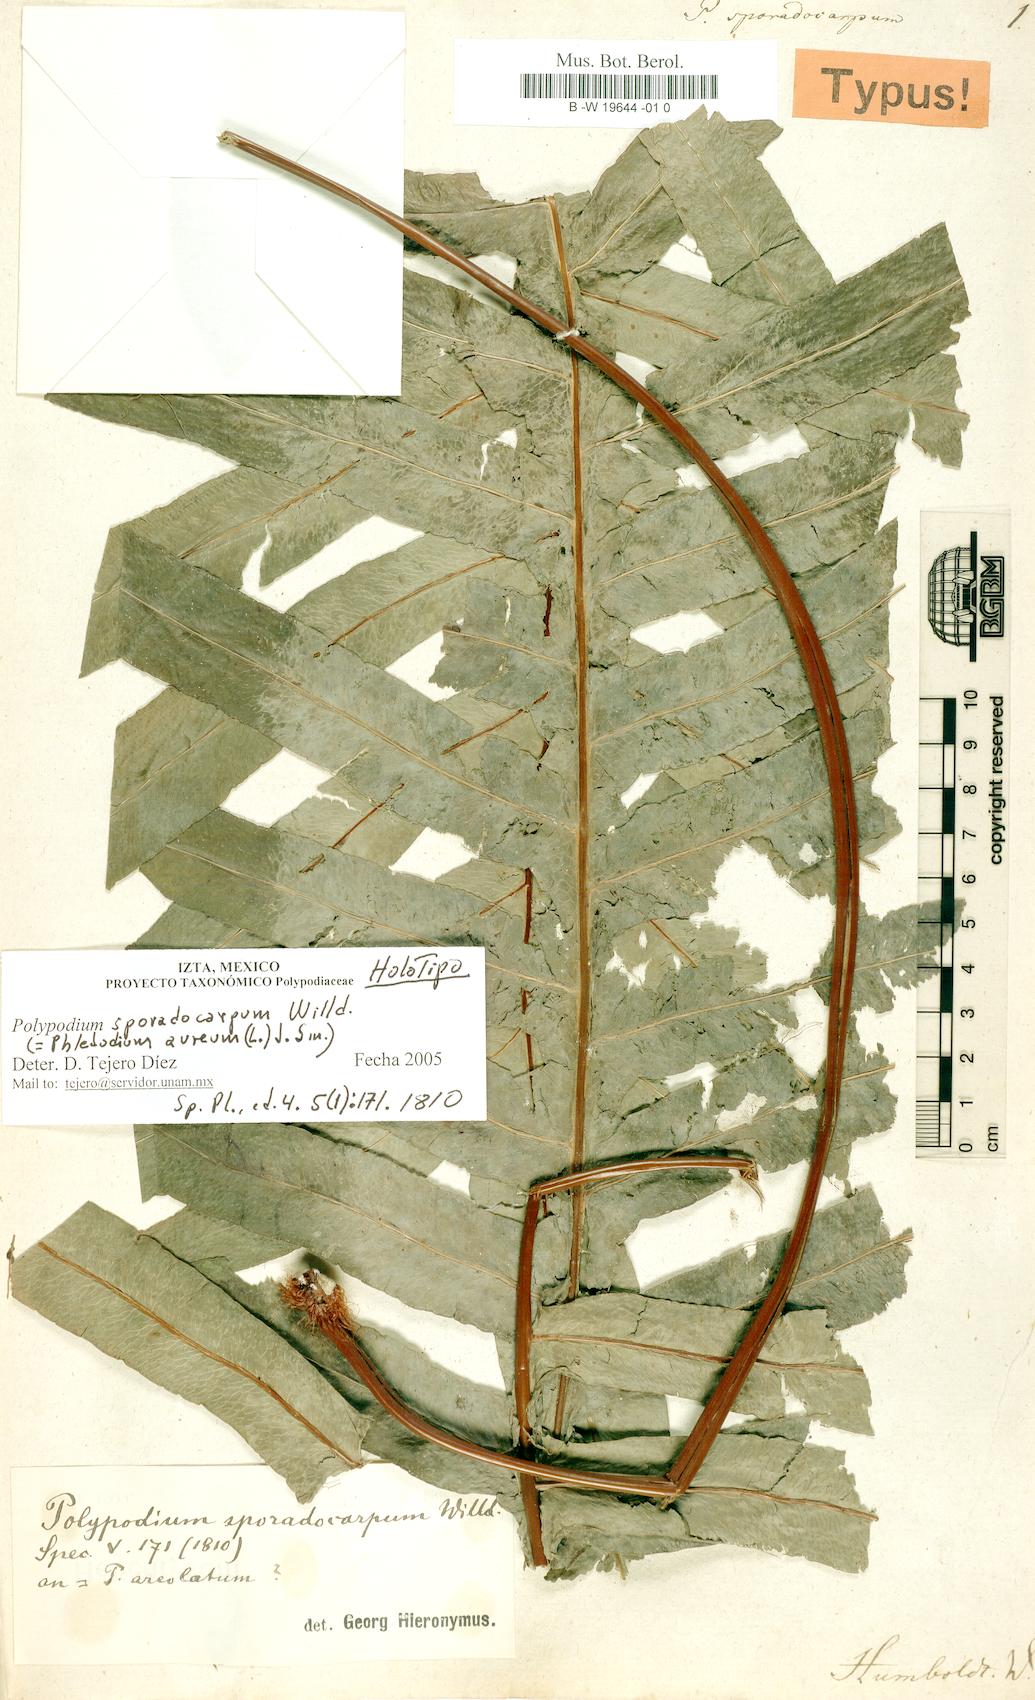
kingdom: Plantae
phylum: Tracheophyta
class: Polypodiopsida
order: Polypodiales
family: Polypodiaceae
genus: Phlebodium
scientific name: Phlebodium pseudoaureum
